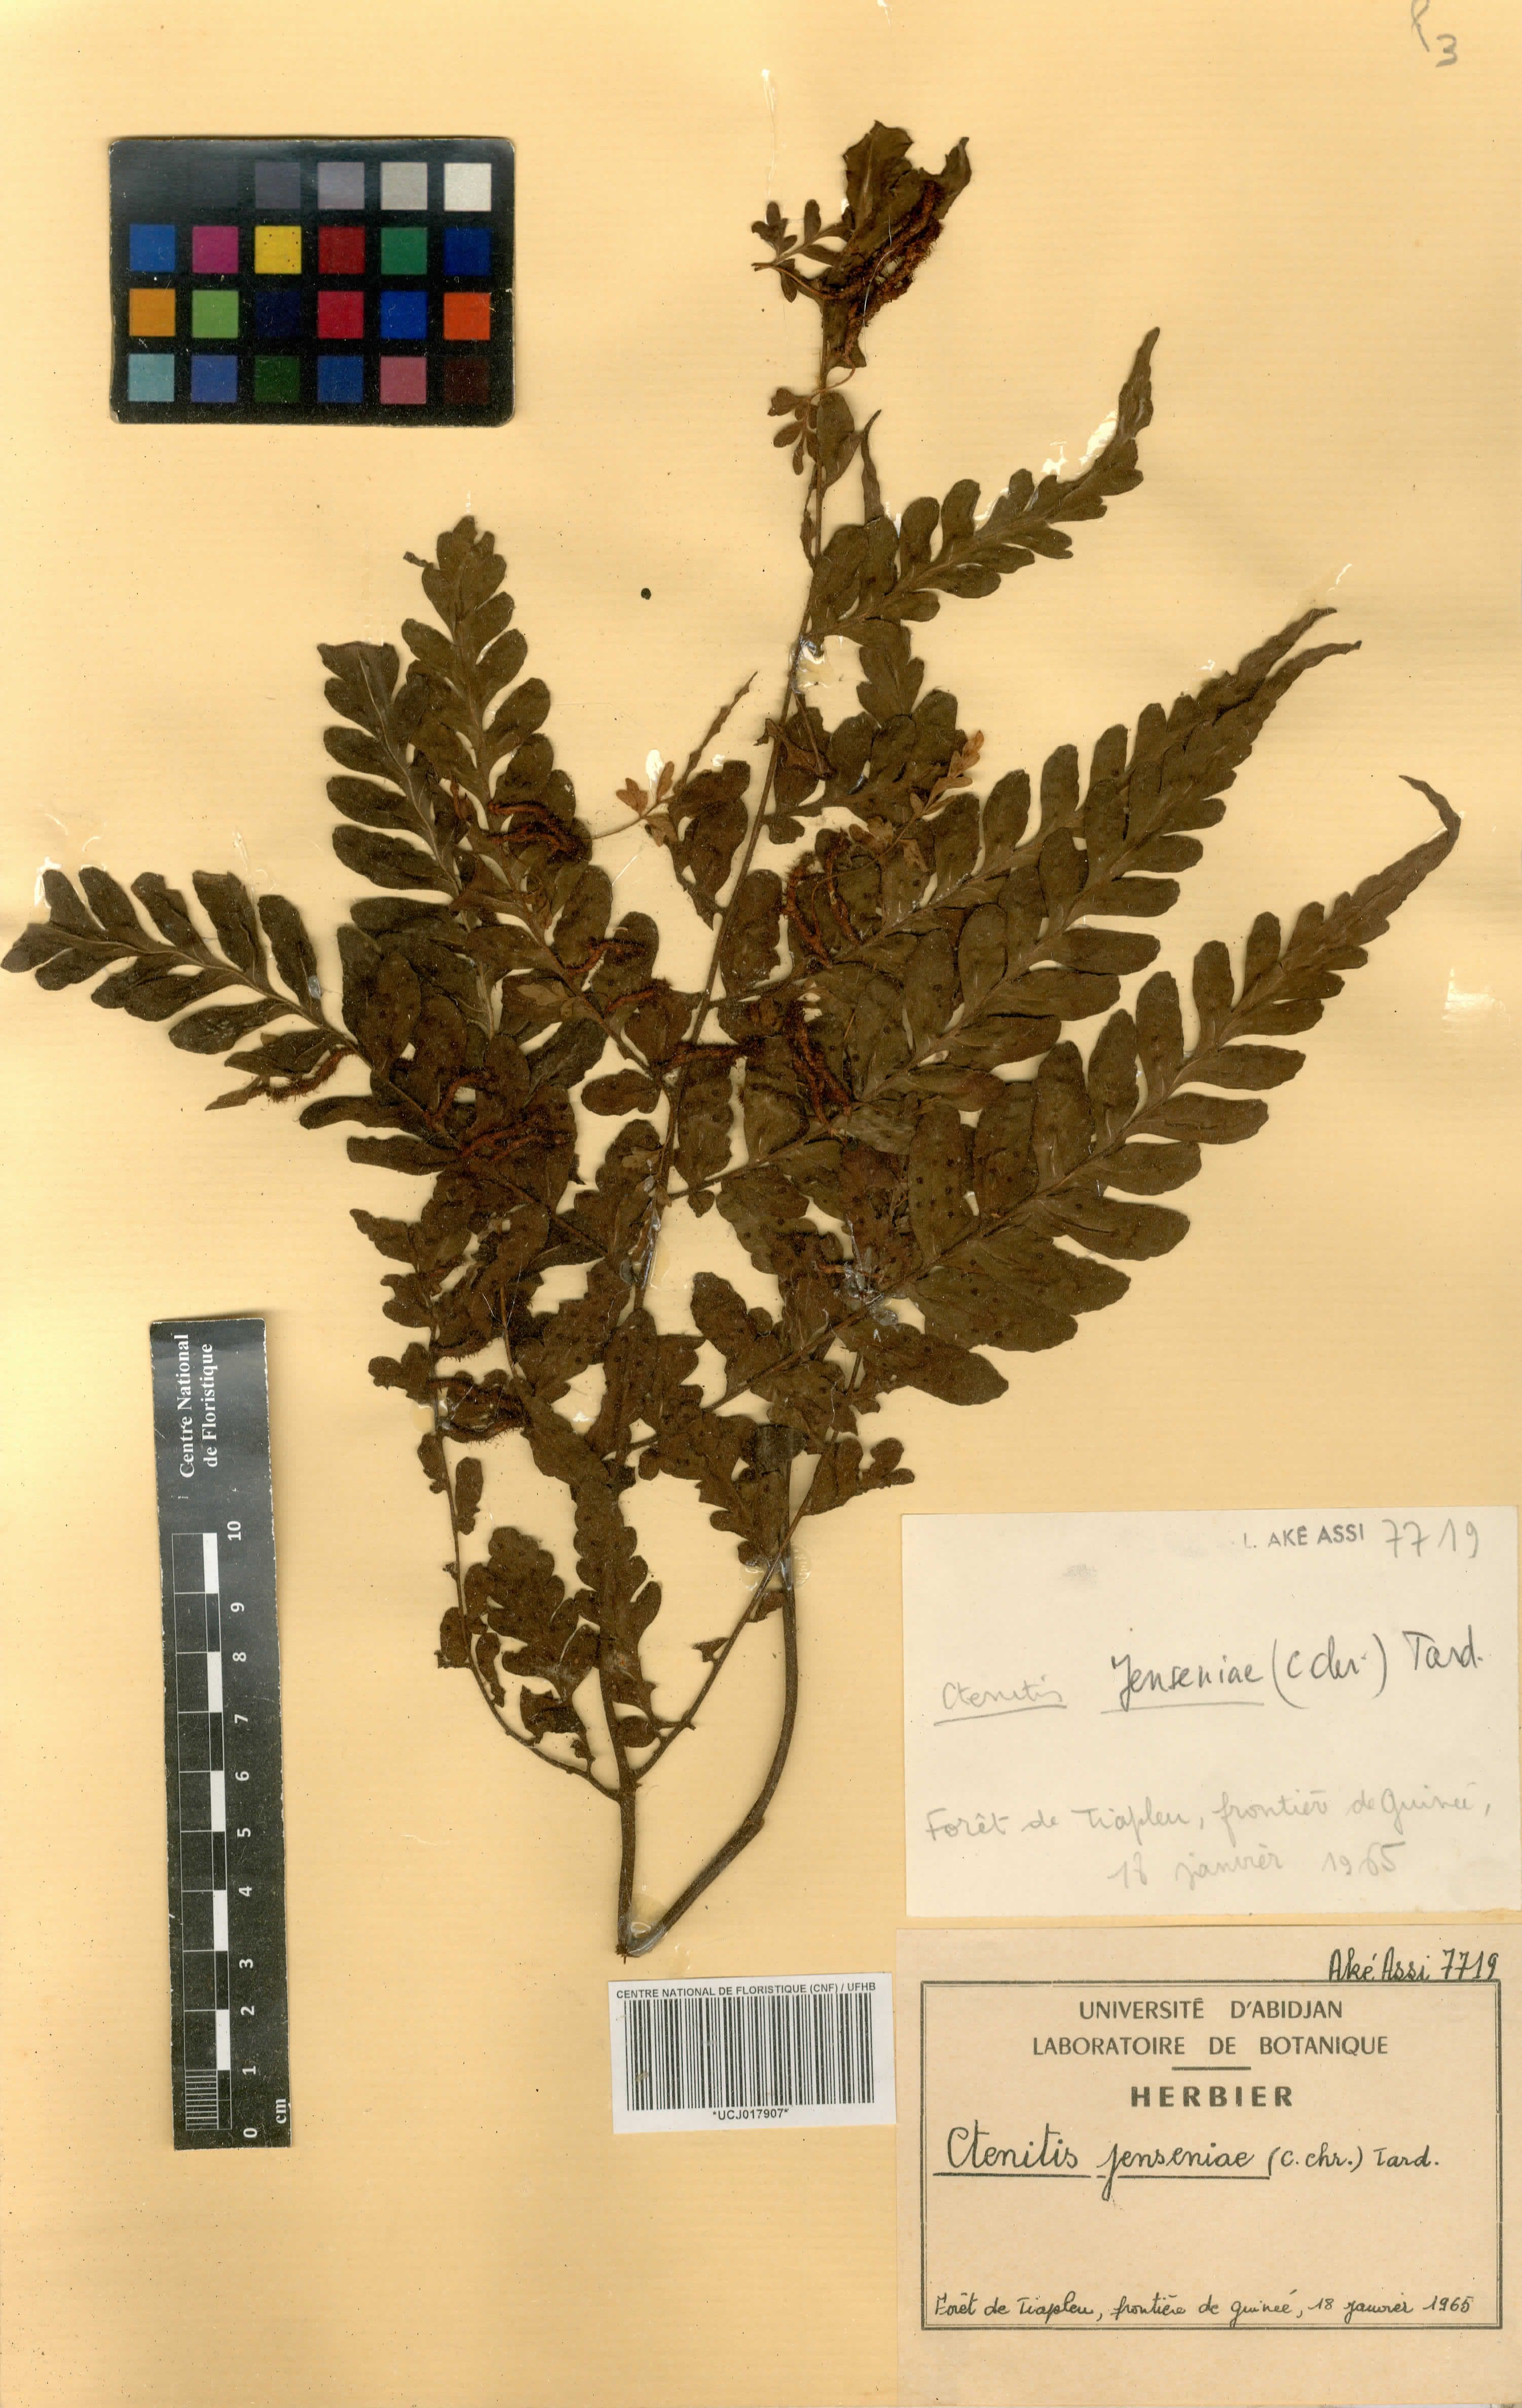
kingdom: Plantae
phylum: Tracheophyta
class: Polypodiopsida
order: Polypodiales
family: Tectariaceae
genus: Triplophyllum
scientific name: Triplophyllum jenseniae
